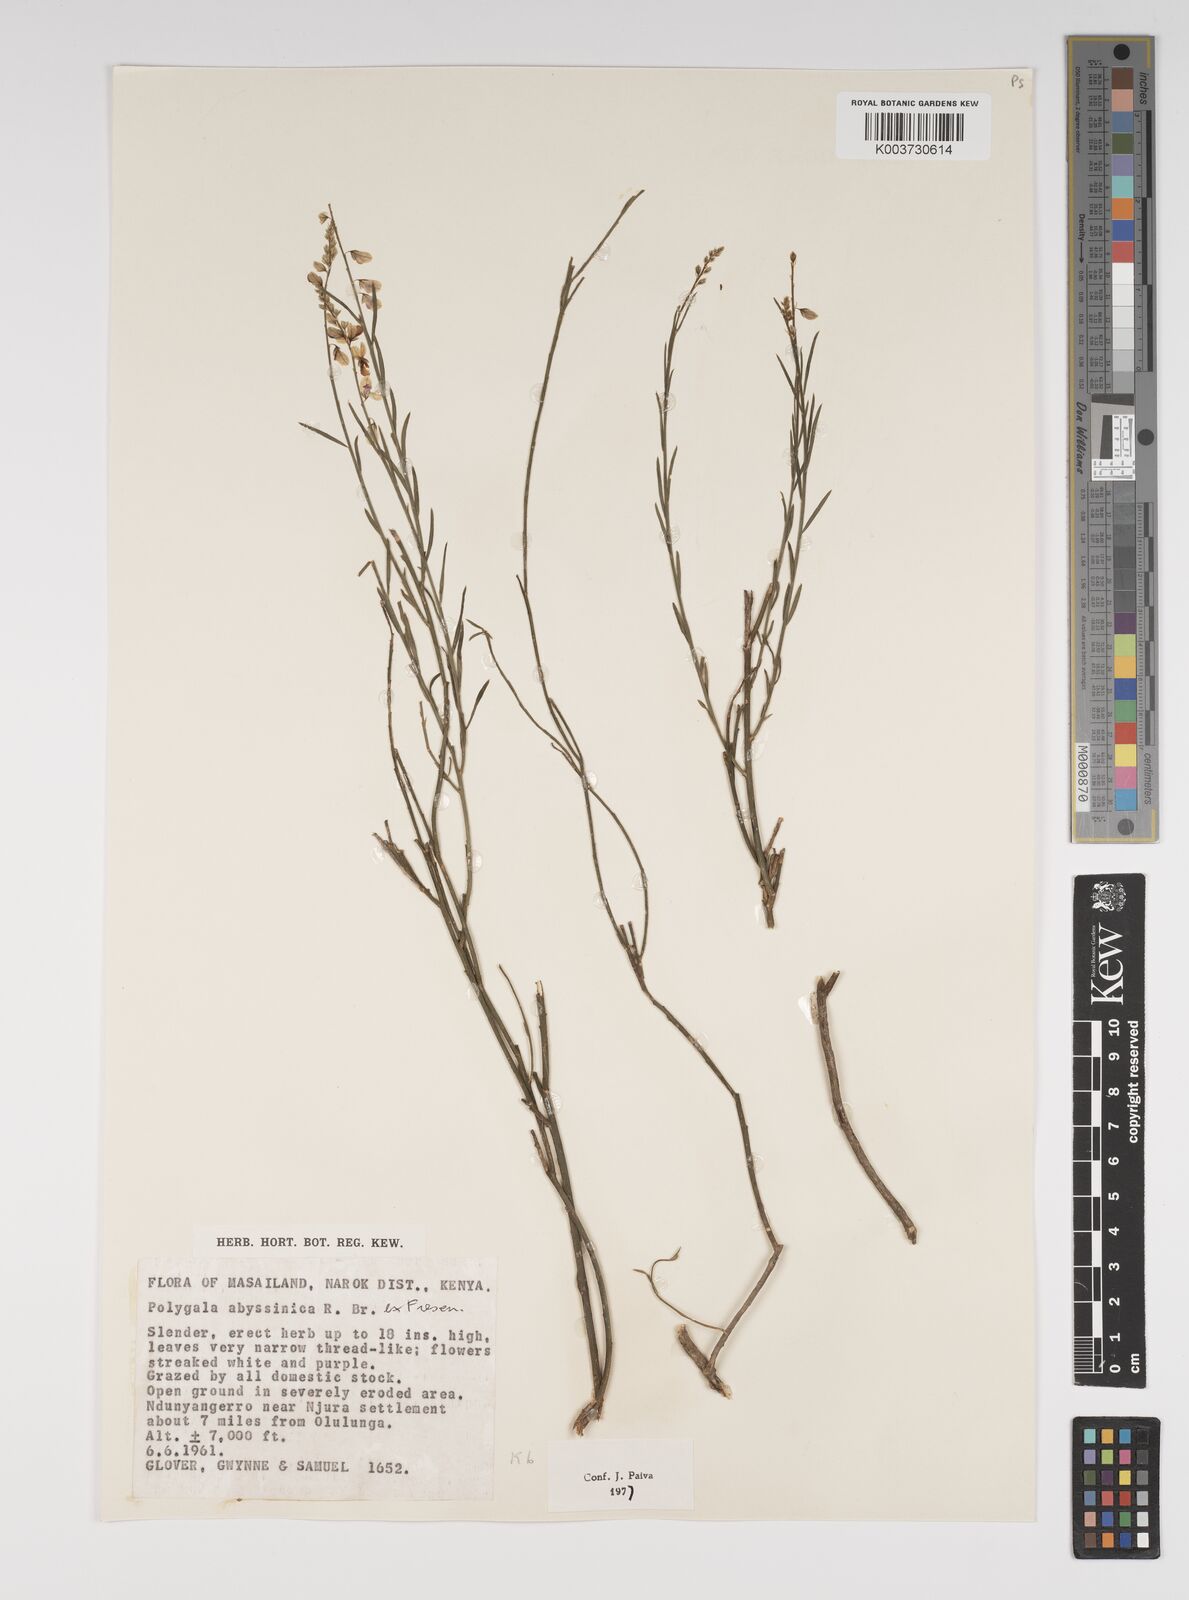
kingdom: Plantae
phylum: Tracheophyta
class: Magnoliopsida
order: Fabales
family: Polygalaceae
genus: Polygala
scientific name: Polygala abyssinica
